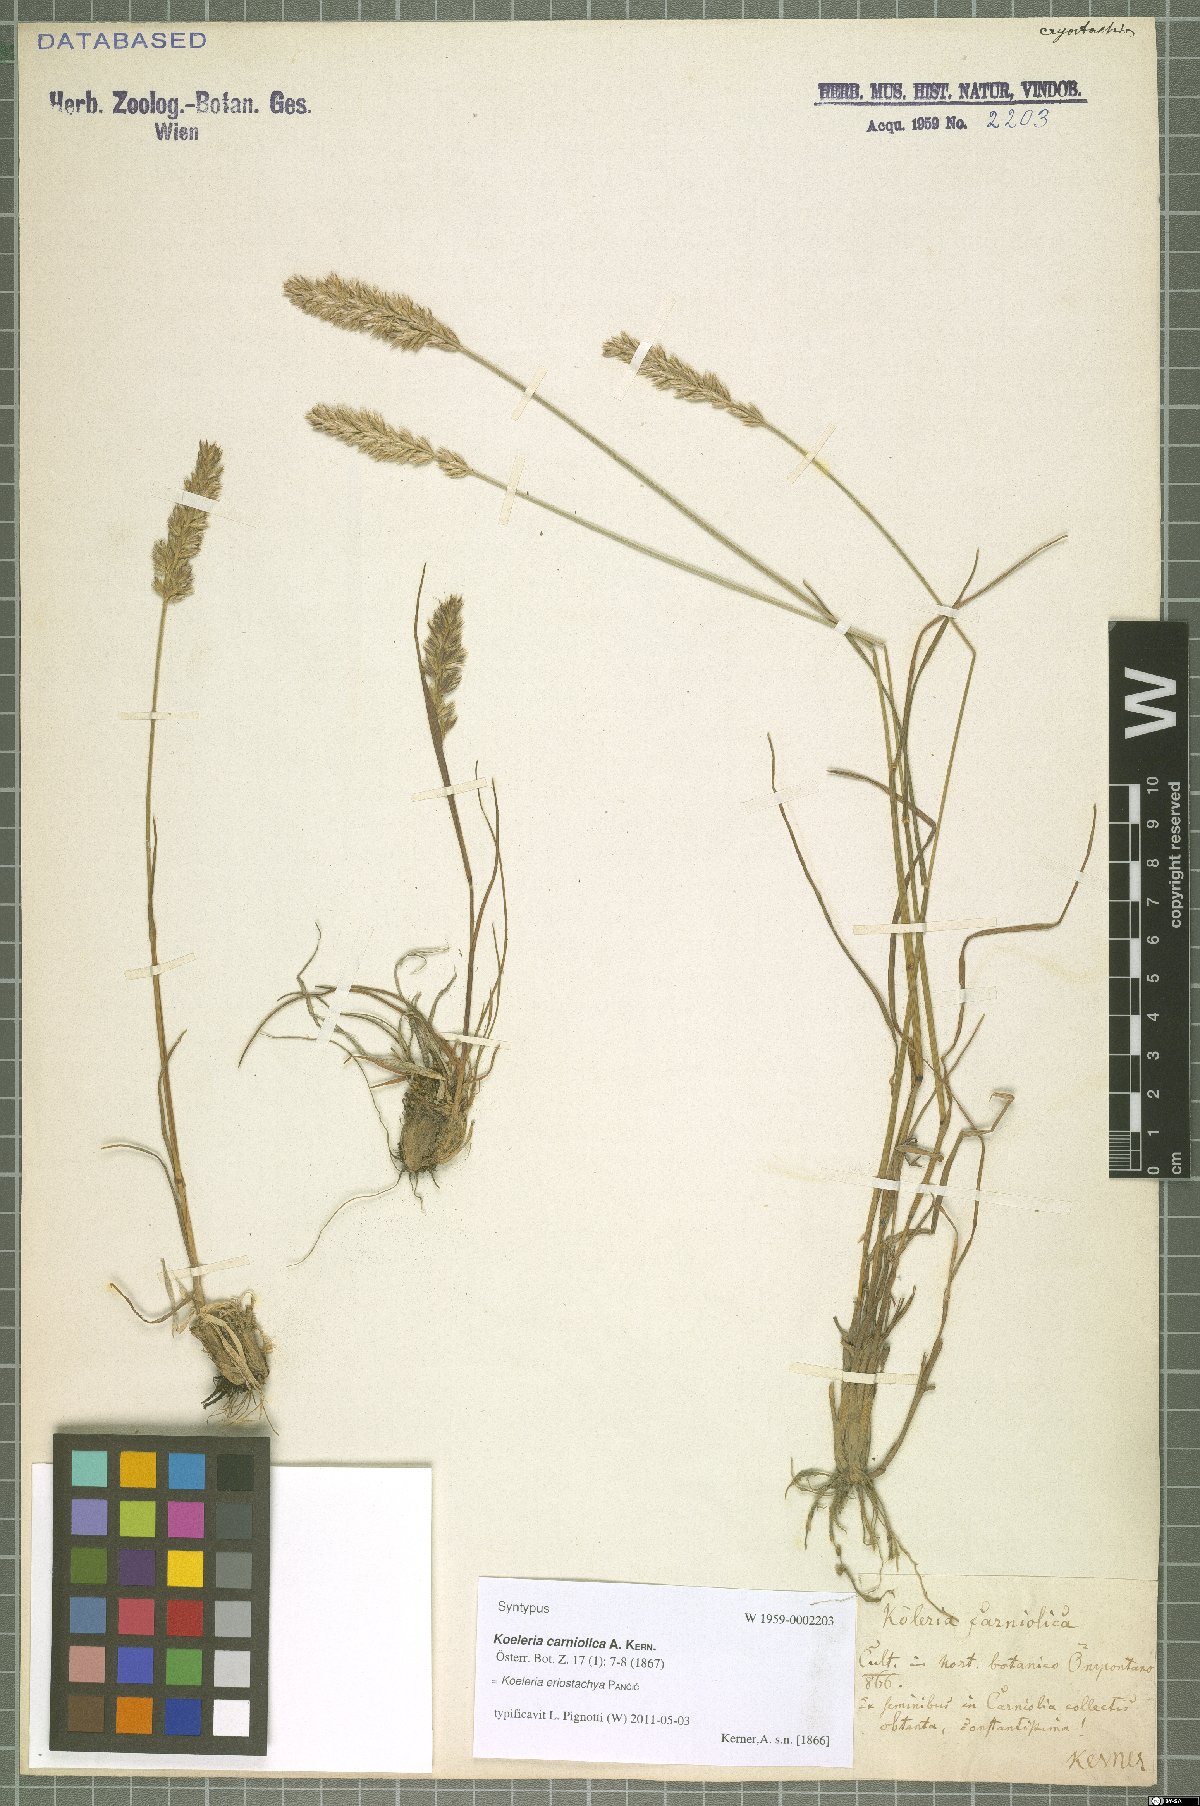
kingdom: Plantae
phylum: Tracheophyta
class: Liliopsida
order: Poales
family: Poaceae
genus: Koeleria
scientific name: Koeleria eriostachya
